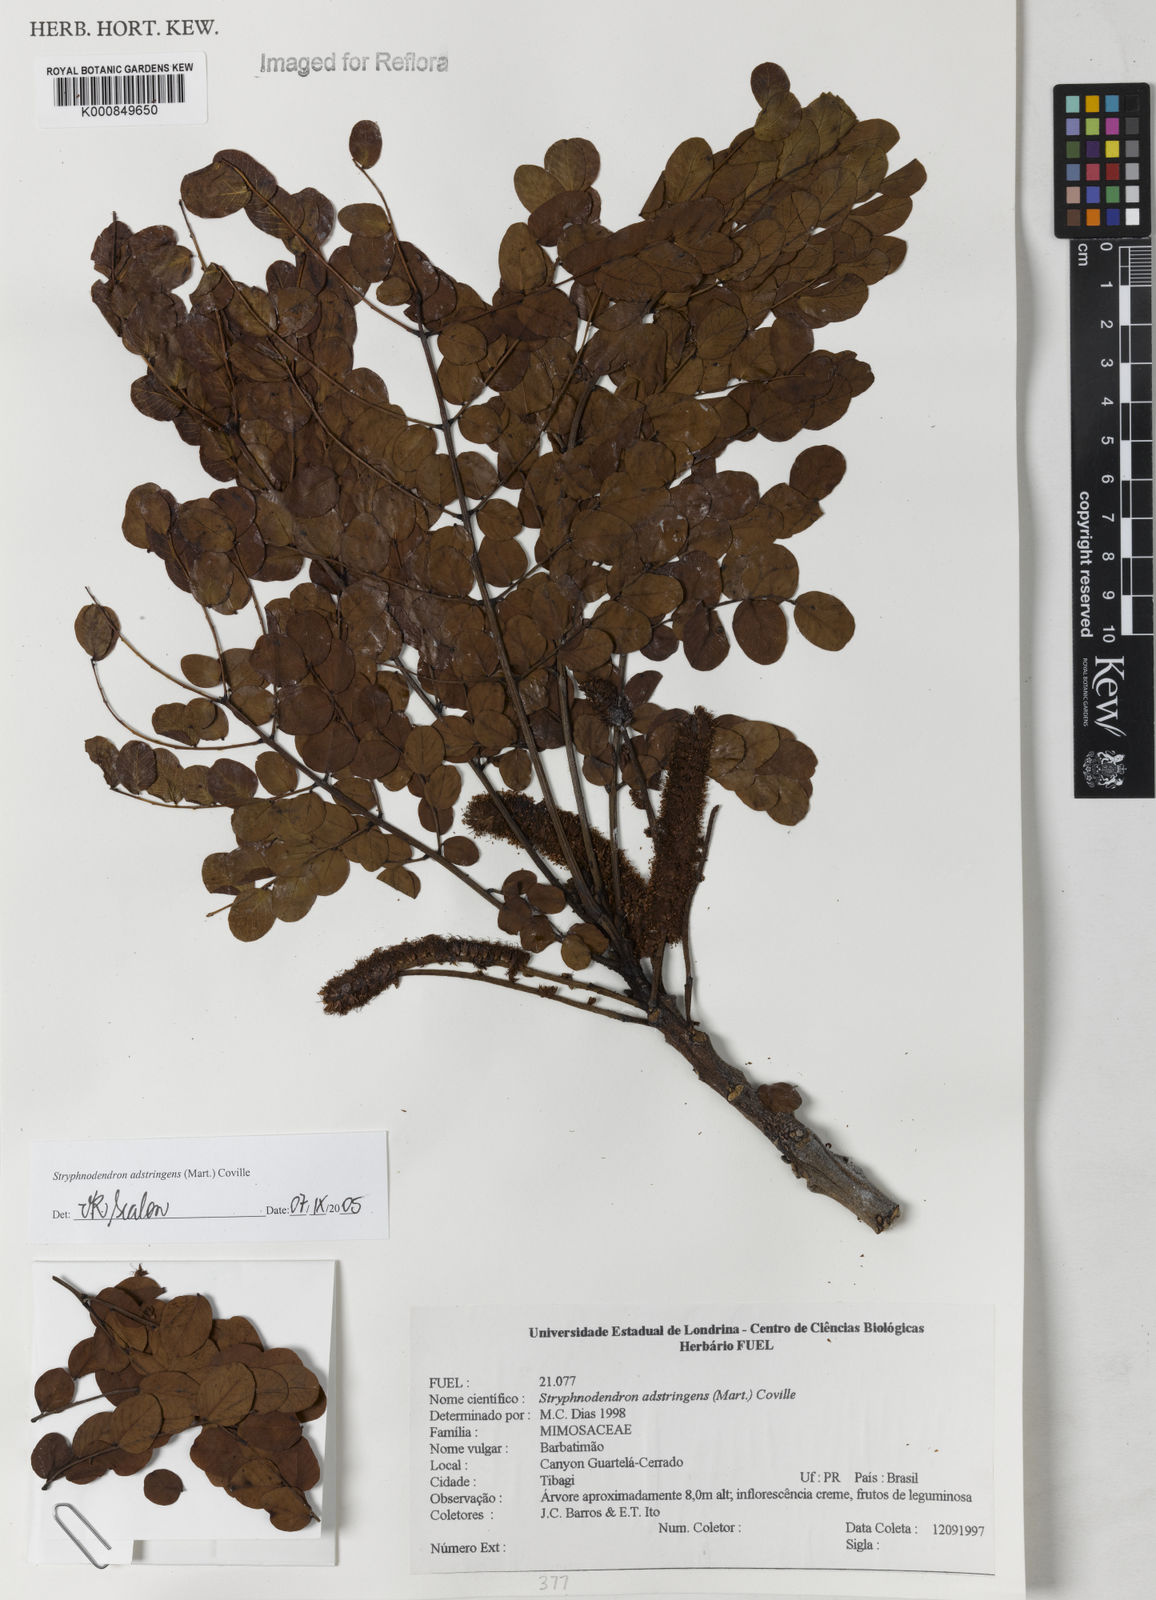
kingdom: Plantae
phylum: Tracheophyta
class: Magnoliopsida
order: Fabales
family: Fabaceae
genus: Stryphnodendron
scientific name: Stryphnodendron adstringens
